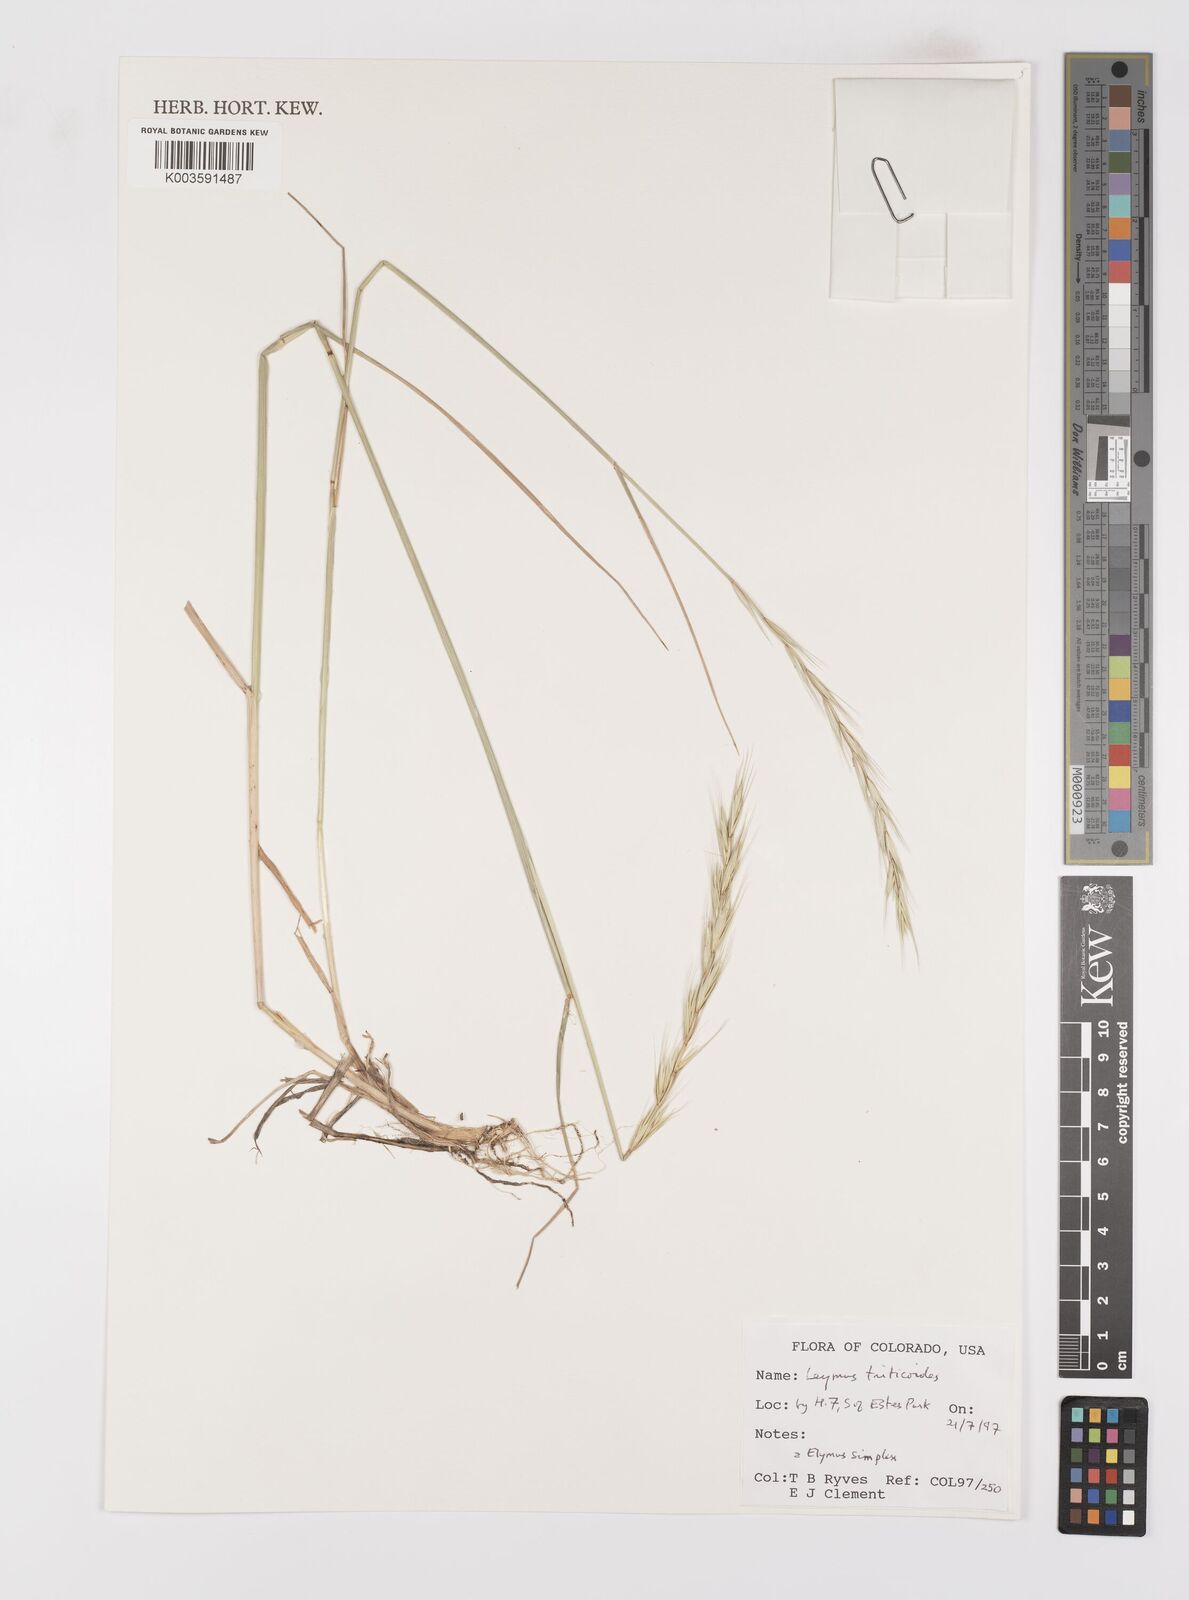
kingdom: Plantae
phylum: Tracheophyta
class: Liliopsida
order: Poales
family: Poaceae
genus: Leymus
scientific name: Leymus triticoides
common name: Beardless wild rye
